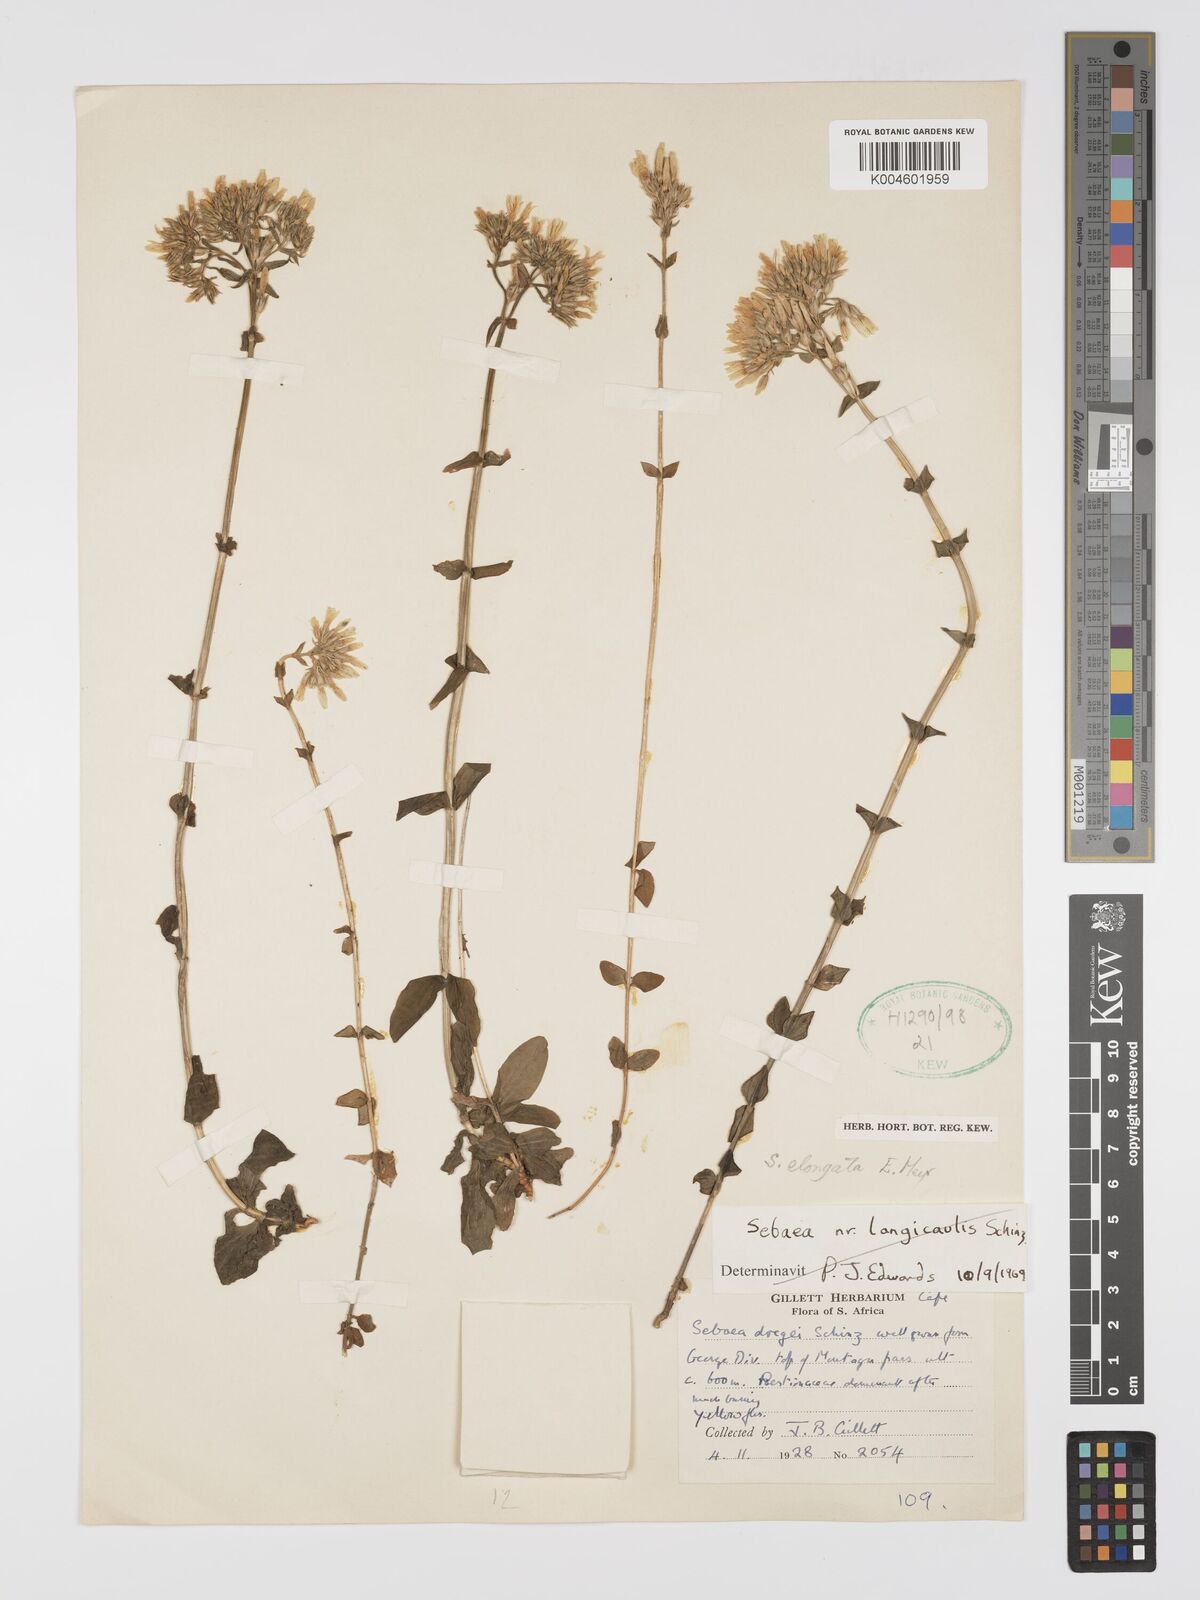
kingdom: Plantae
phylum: Tracheophyta
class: Magnoliopsida
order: Gentianales
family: Gentianaceae
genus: Sebaea
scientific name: Sebaea elongata
